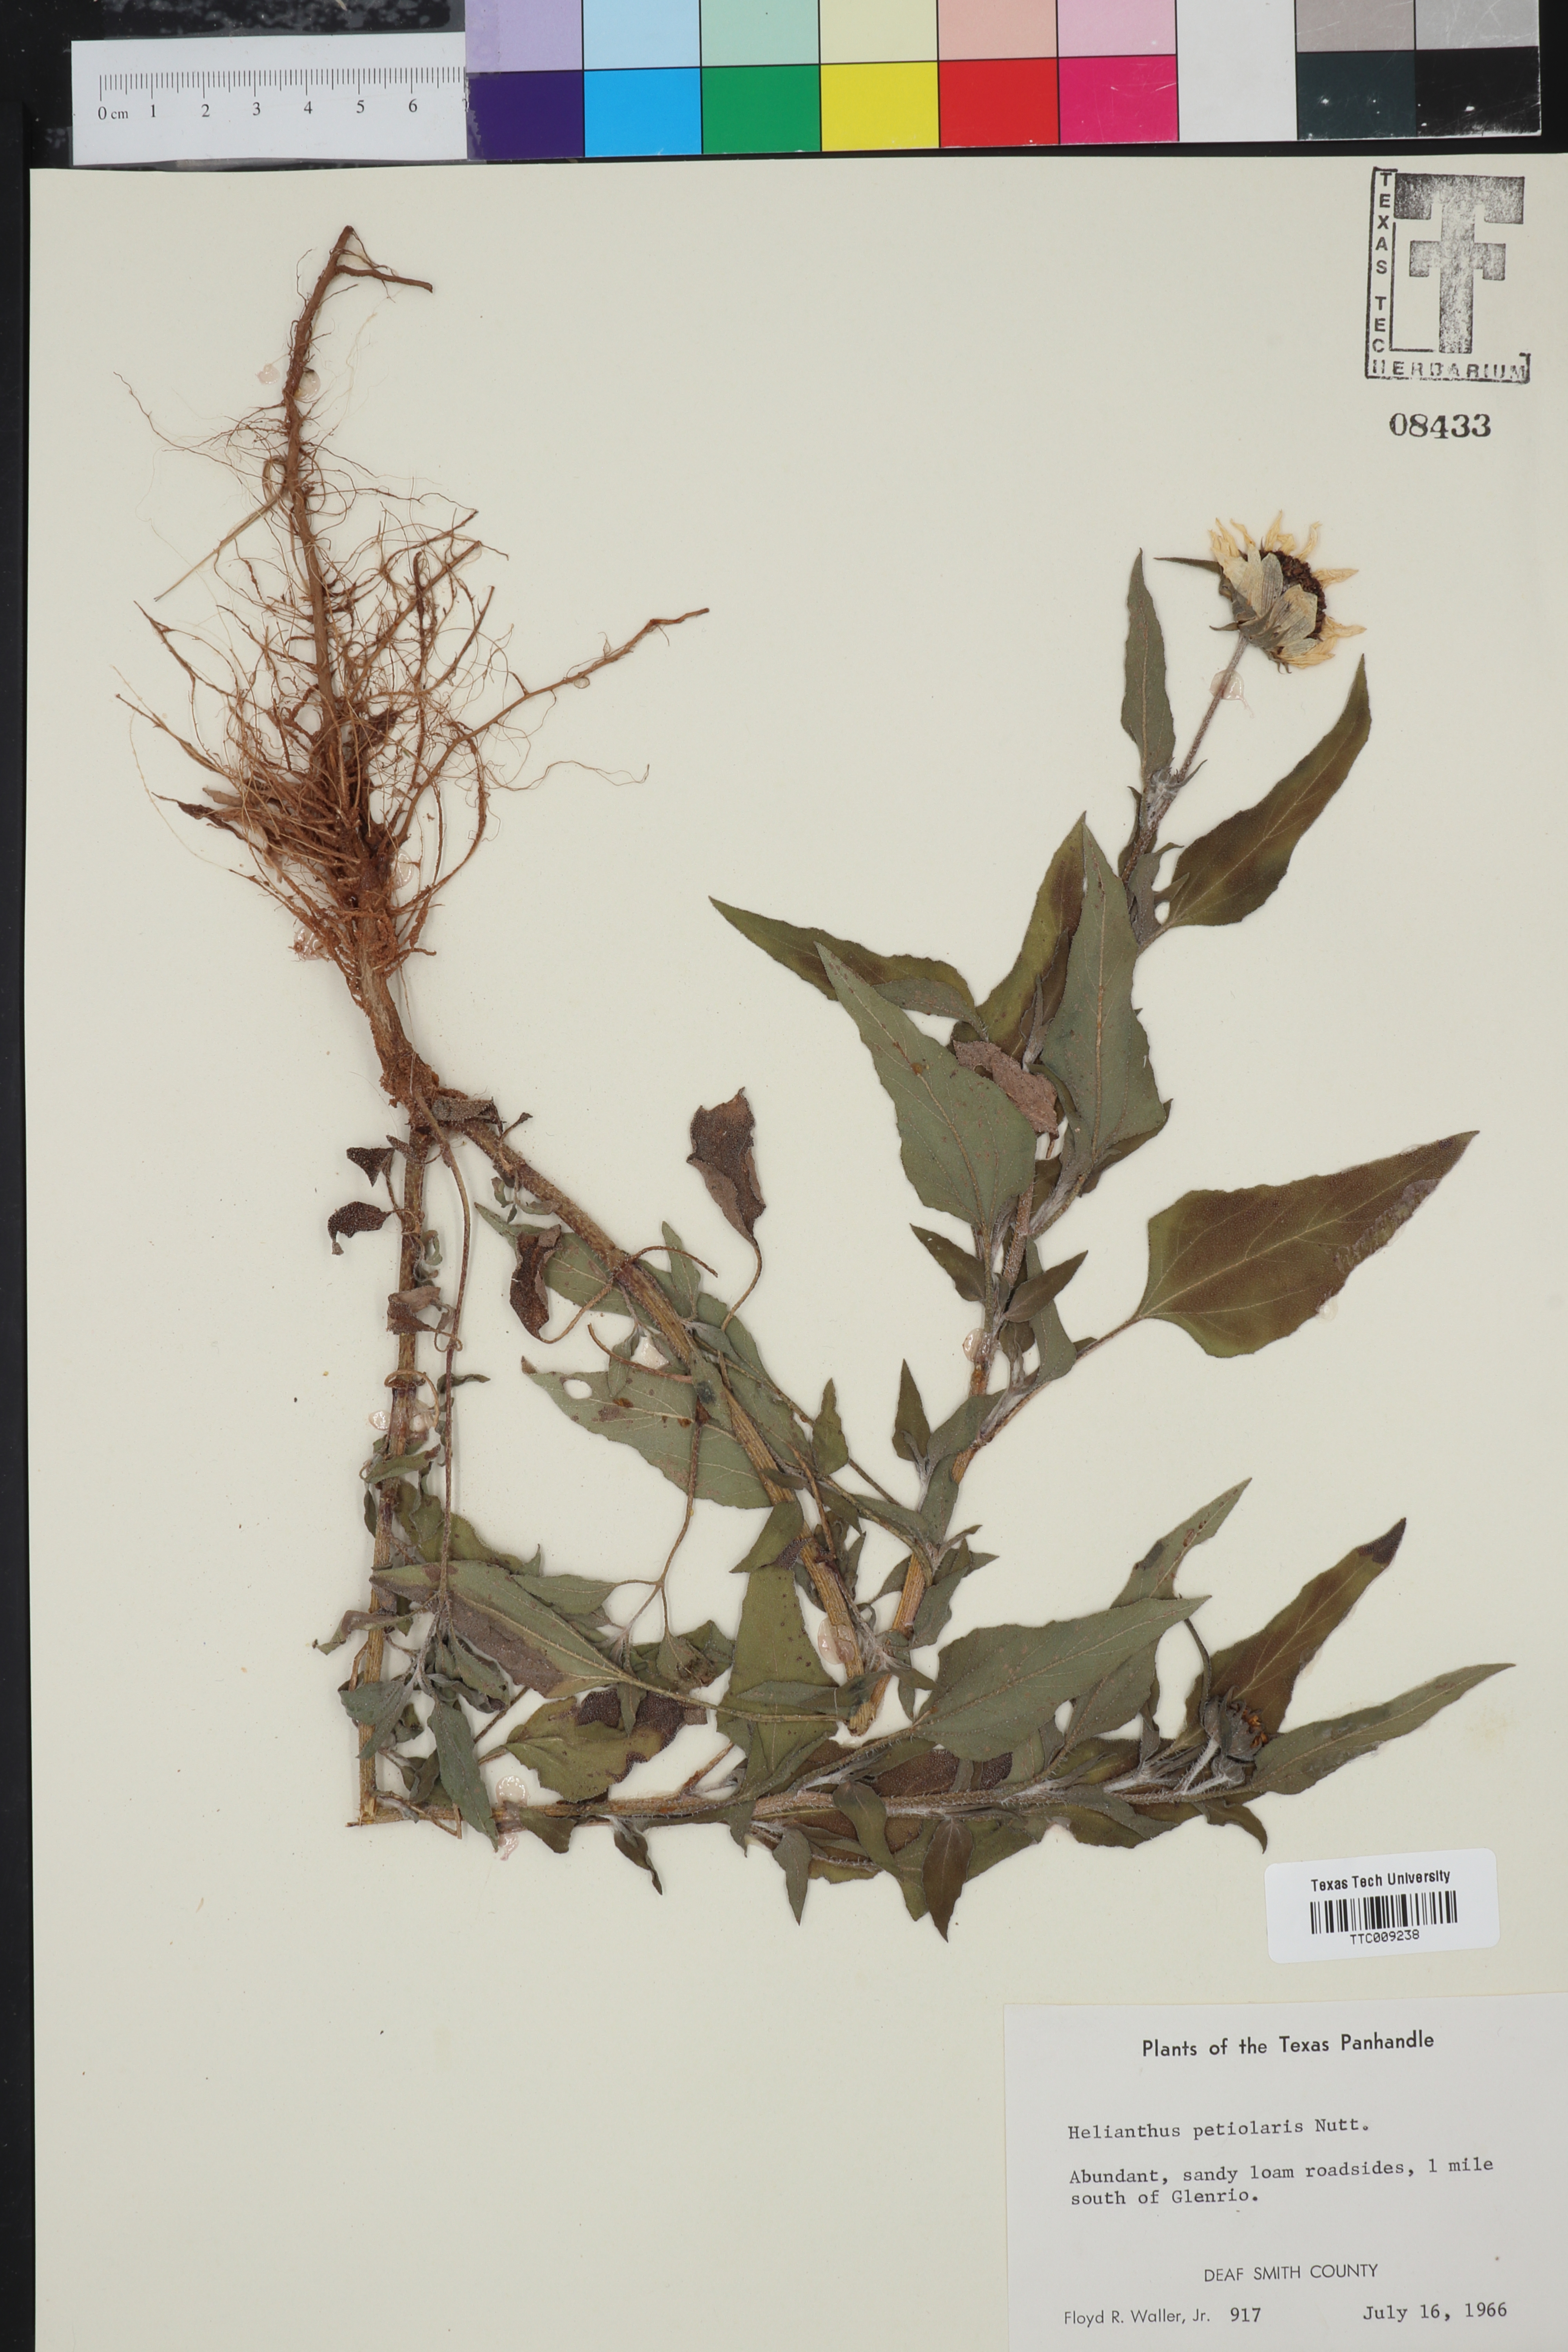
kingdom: Plantae
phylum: Tracheophyta
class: Magnoliopsida
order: Asterales
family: Asteraceae
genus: Helianthus
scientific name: Helianthus petiolaris
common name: Lesser sunflower
